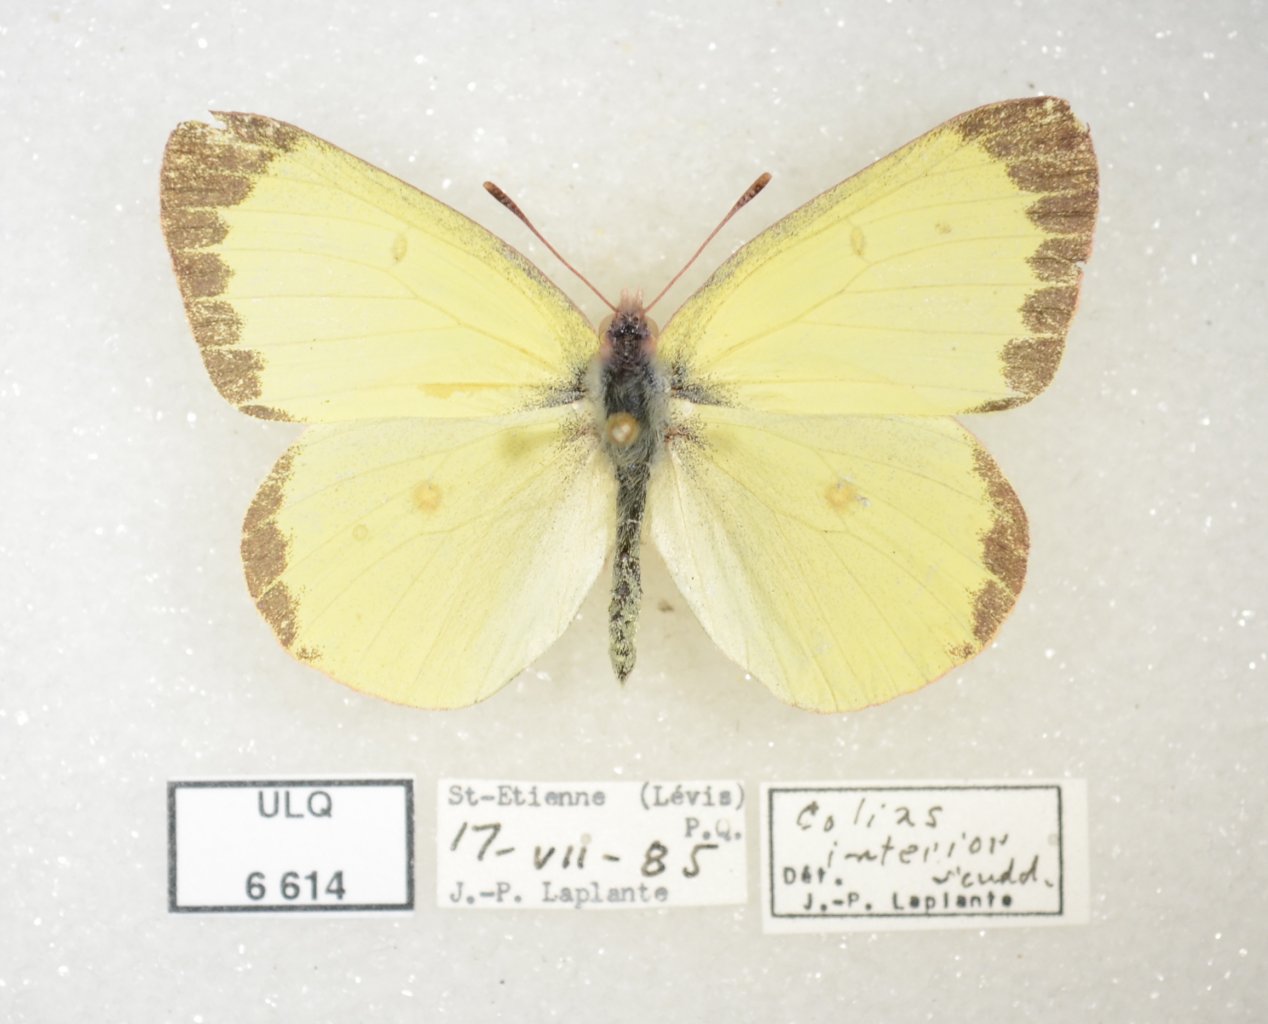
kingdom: Animalia
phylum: Arthropoda
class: Insecta
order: Lepidoptera
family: Pieridae
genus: Colias
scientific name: Colias interior
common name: Pink-edged Sulphur
